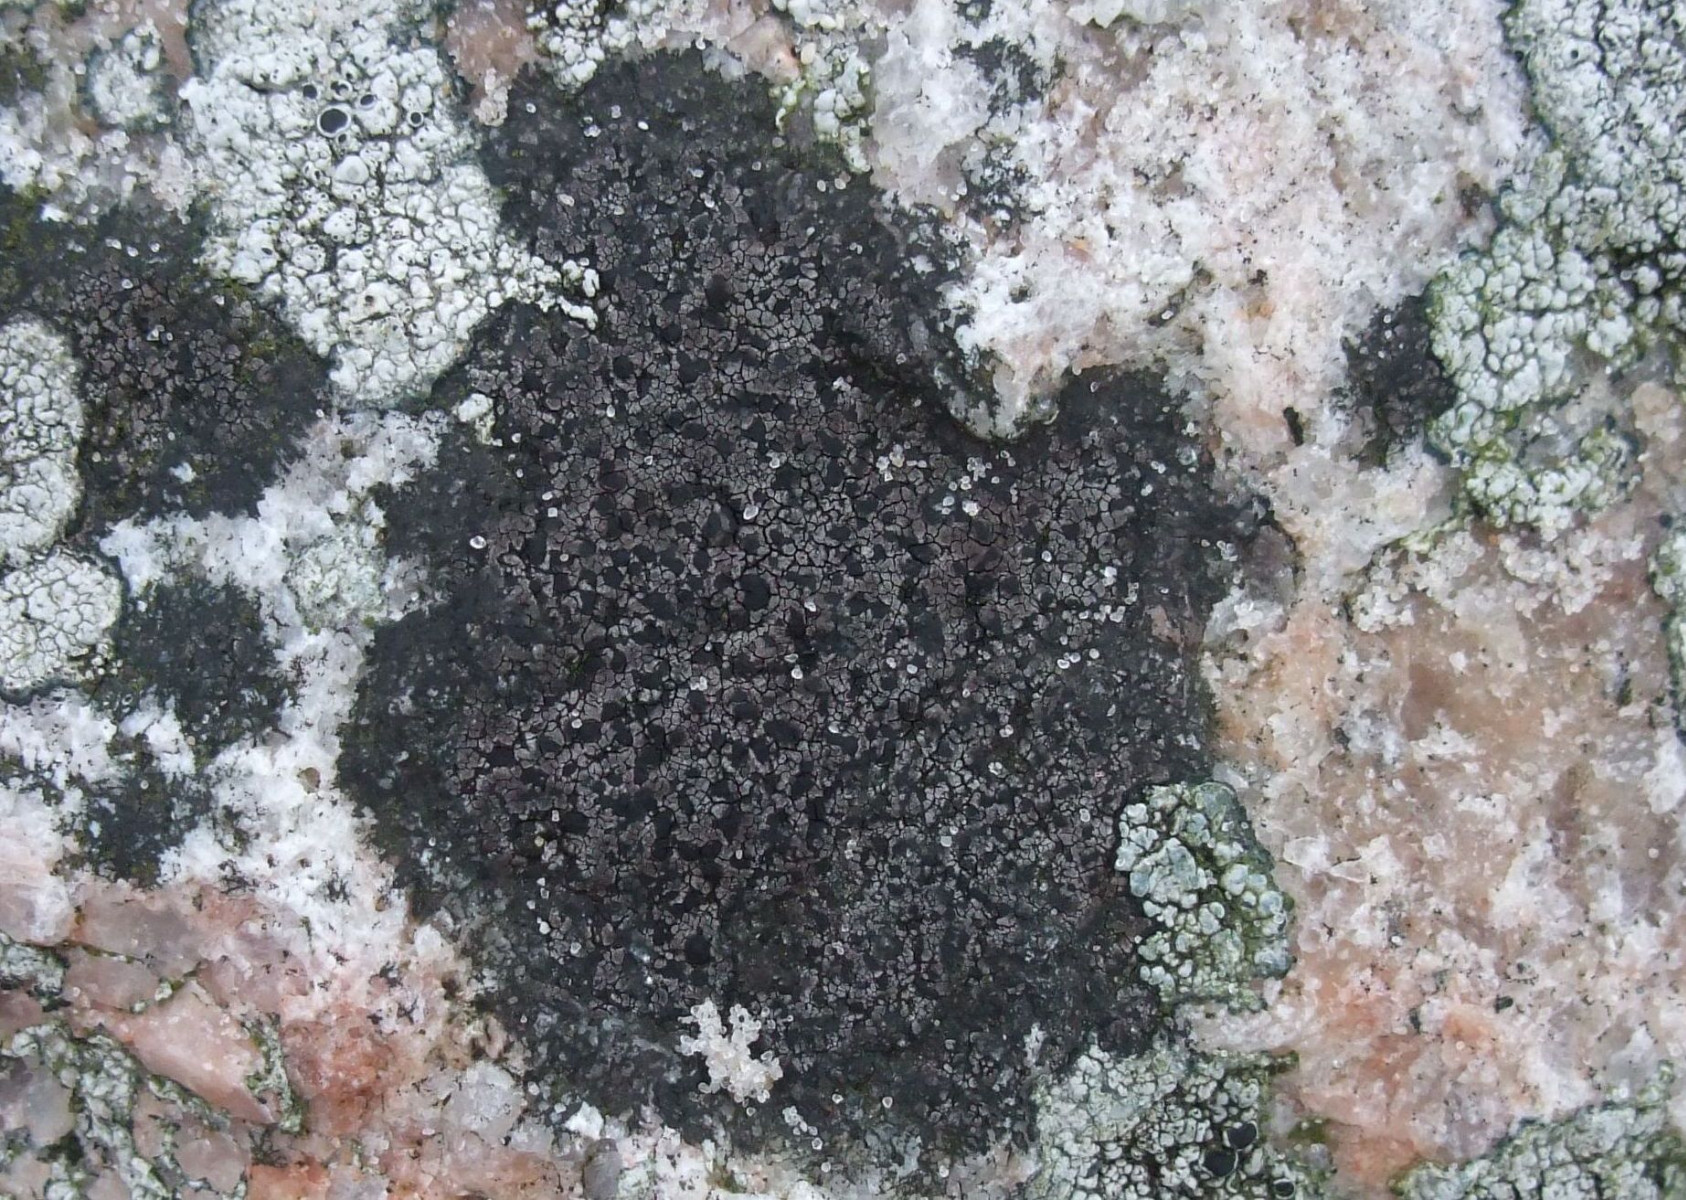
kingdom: Fungi
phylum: Ascomycota
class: Lecanoromycetes
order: Rhizocarpales
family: Rhizocarpaceae
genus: Rhizocarpon
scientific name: Rhizocarpon richardii
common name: Kyst-landkortlav
